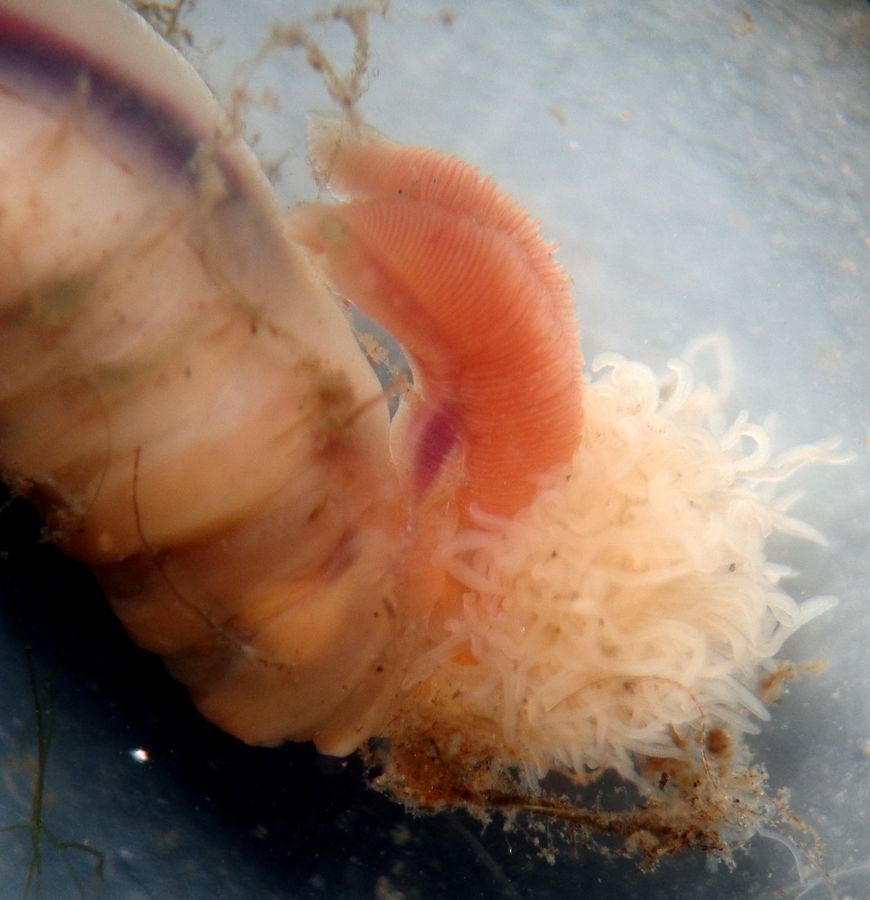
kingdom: Animalia
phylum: Annelida
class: Polychaeta
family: Trichobranchidae
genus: Terebellides
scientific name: Terebellides stroemii
